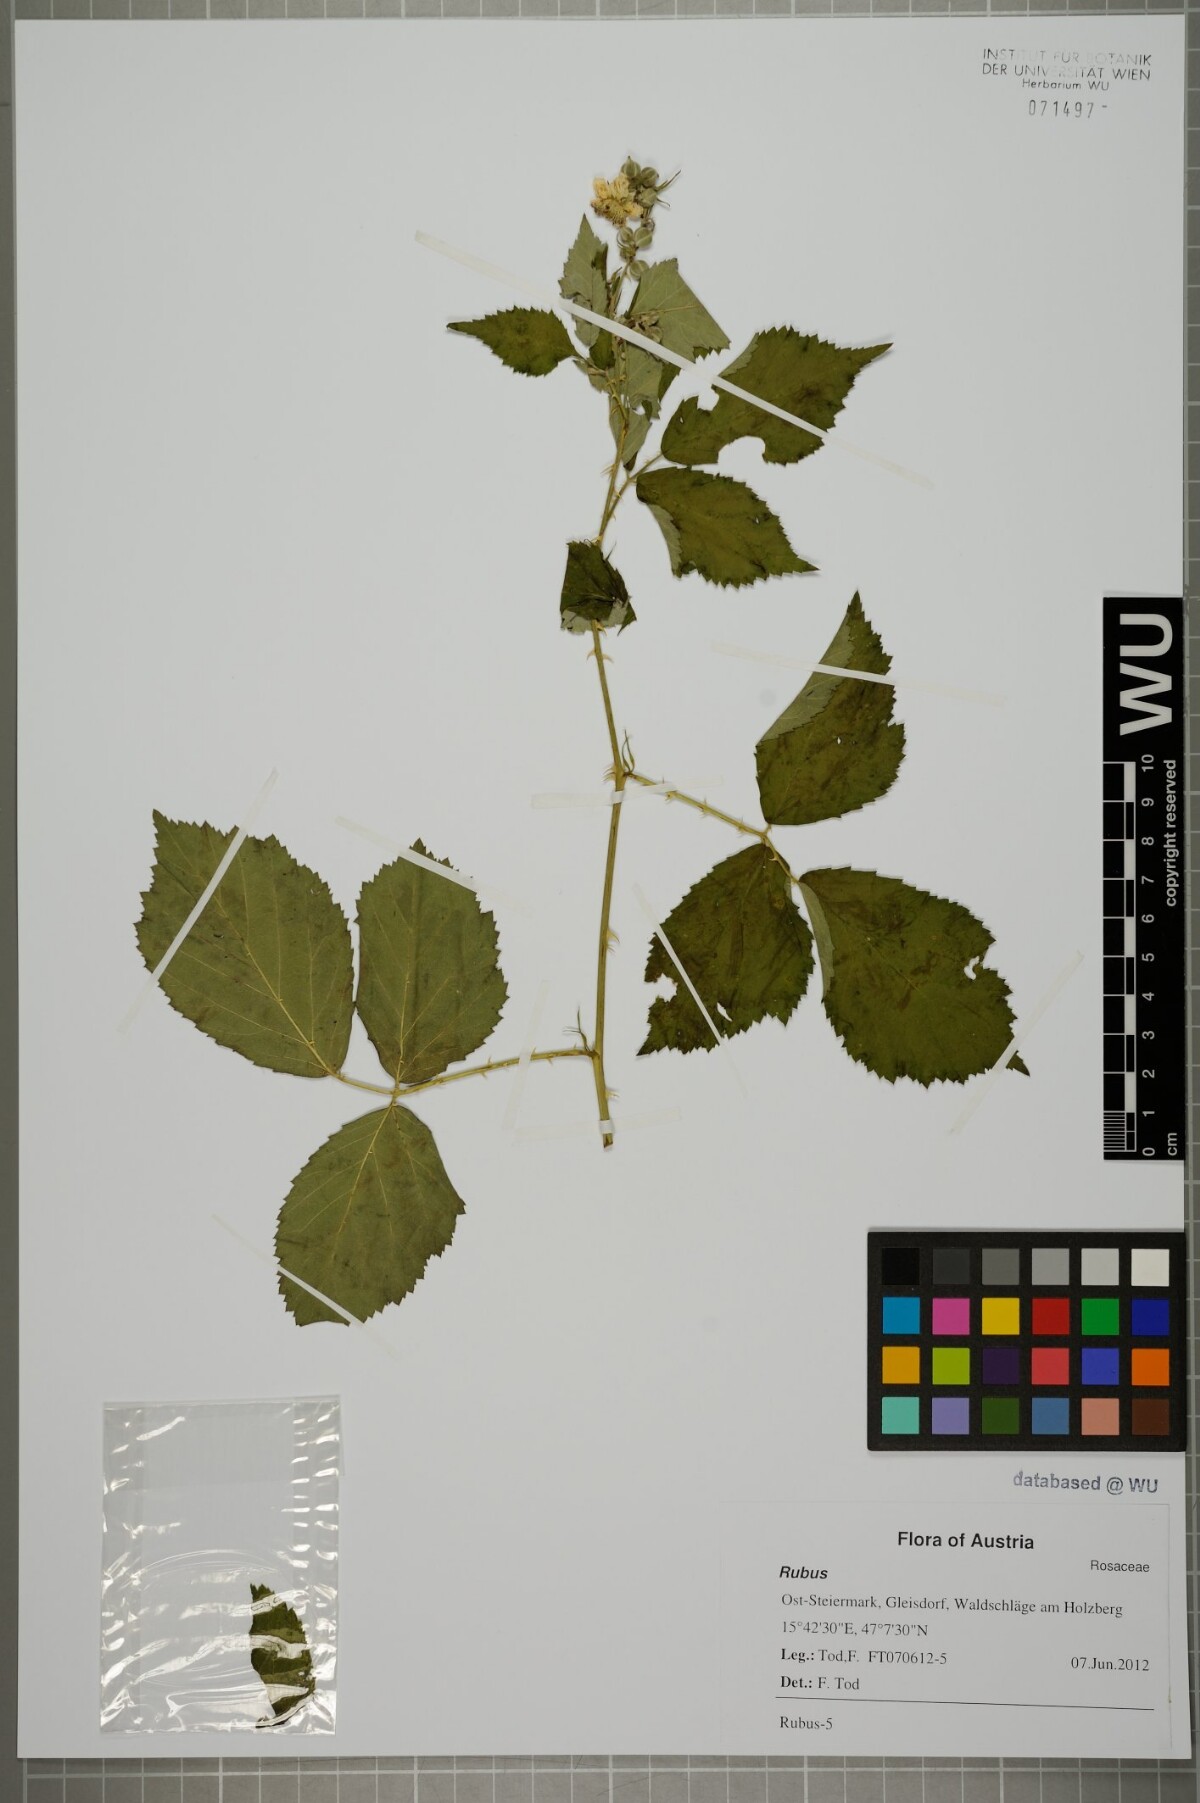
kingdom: Plantae
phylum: Tracheophyta
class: Magnoliopsida
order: Rosales
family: Rosaceae
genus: Rubus
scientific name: Rubus
